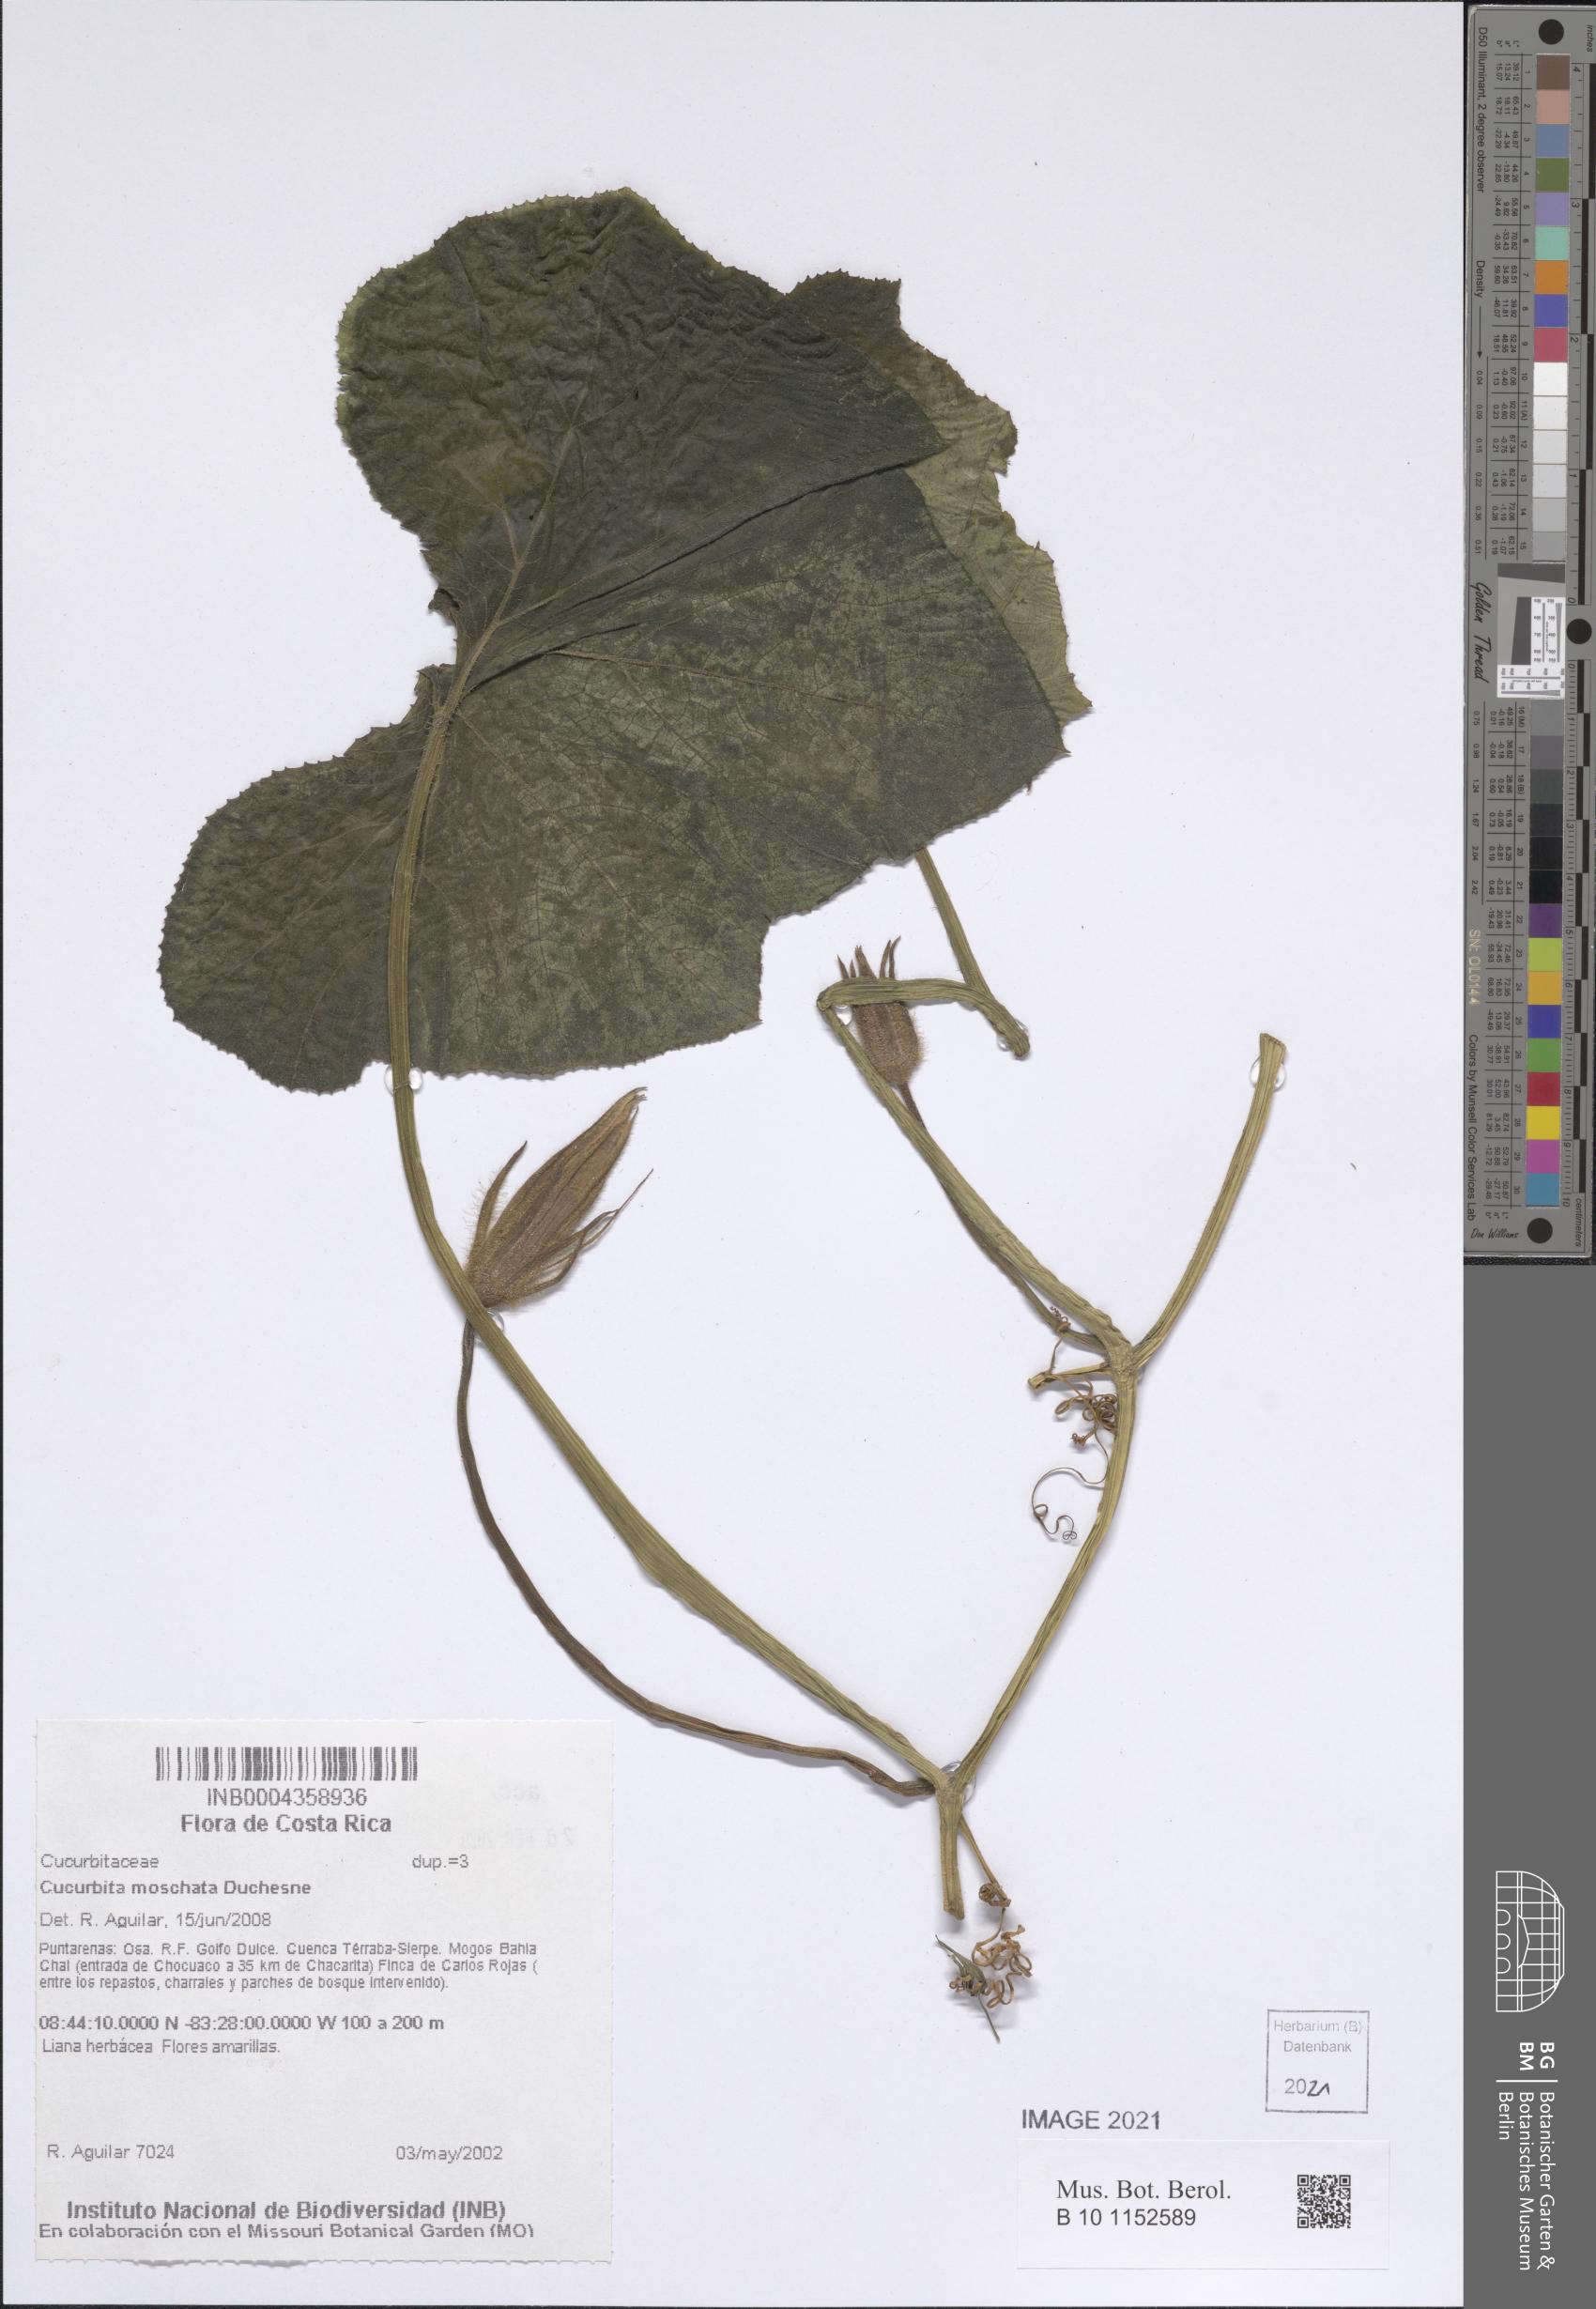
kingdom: Plantae
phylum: Tracheophyta
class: Magnoliopsida
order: Cucurbitales
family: Cucurbitaceae
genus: Cucurbita
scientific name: Cucurbita moschata
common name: Squash / pumpkin
